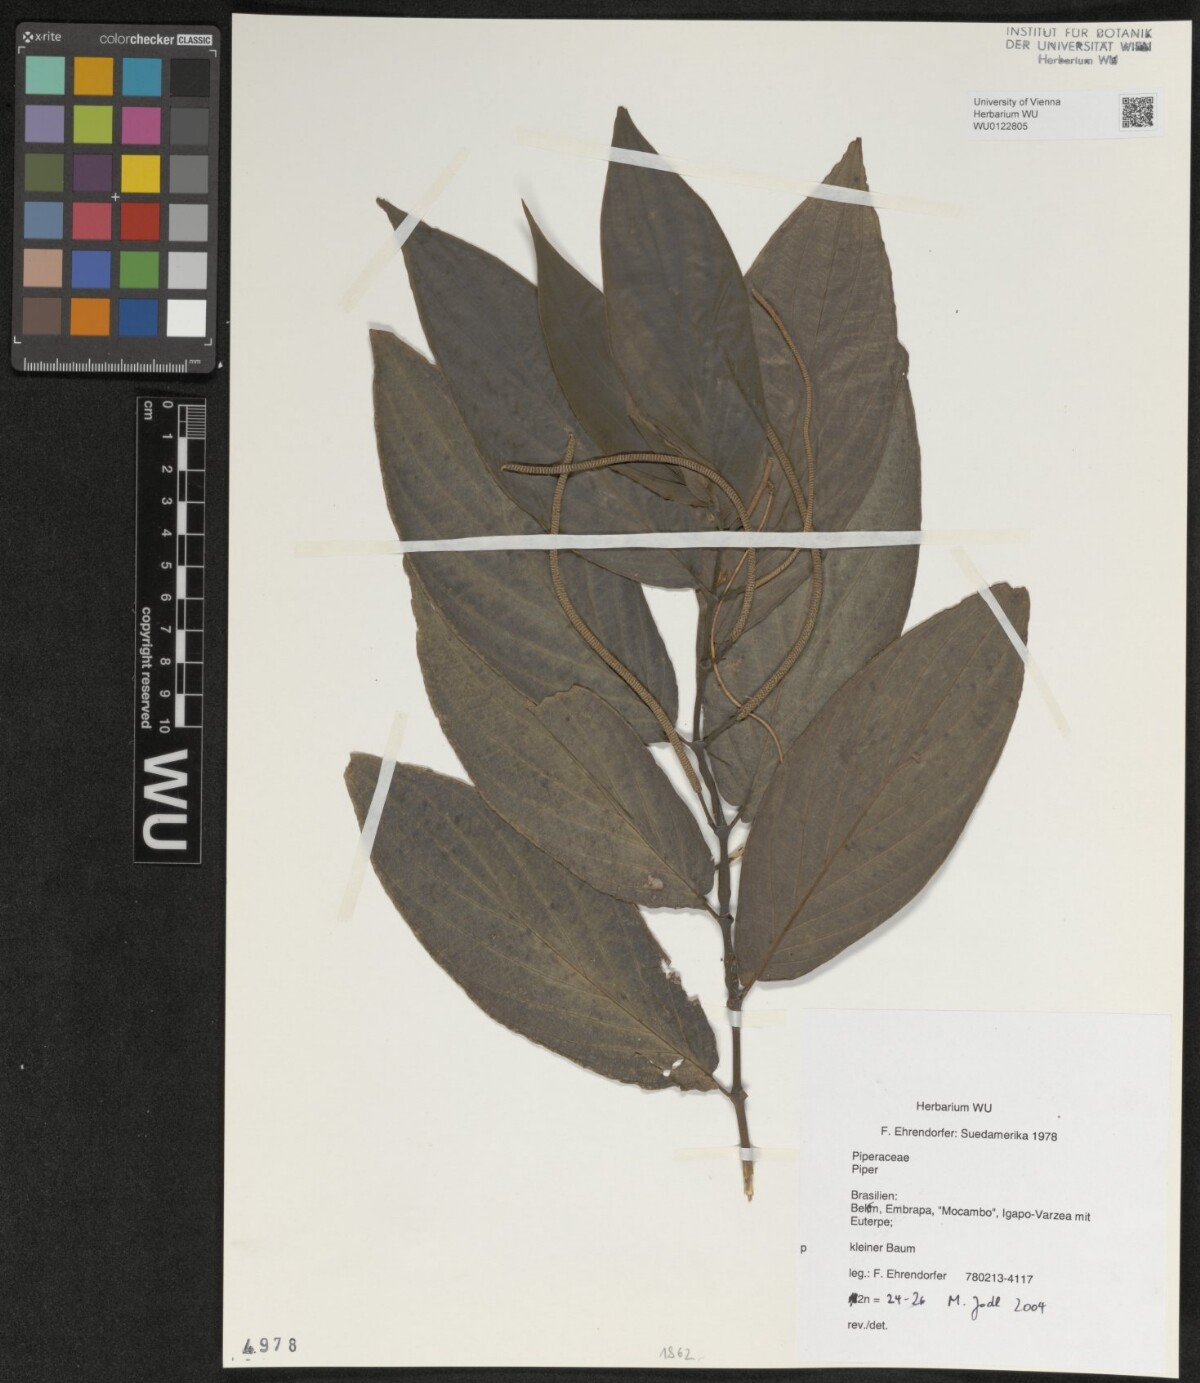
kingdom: Plantae
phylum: Tracheophyta
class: Magnoliopsida
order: Piperales
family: Piperaceae
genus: Piper
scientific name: Piper
